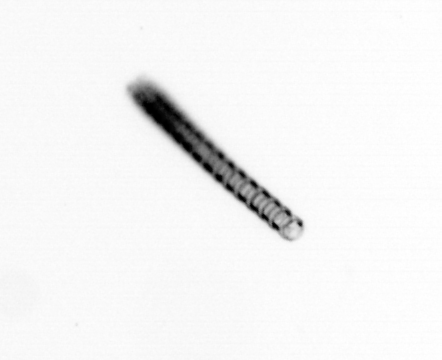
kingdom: Chromista
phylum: Ochrophyta
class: Bacillariophyceae
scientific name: Bacillariophyceae
